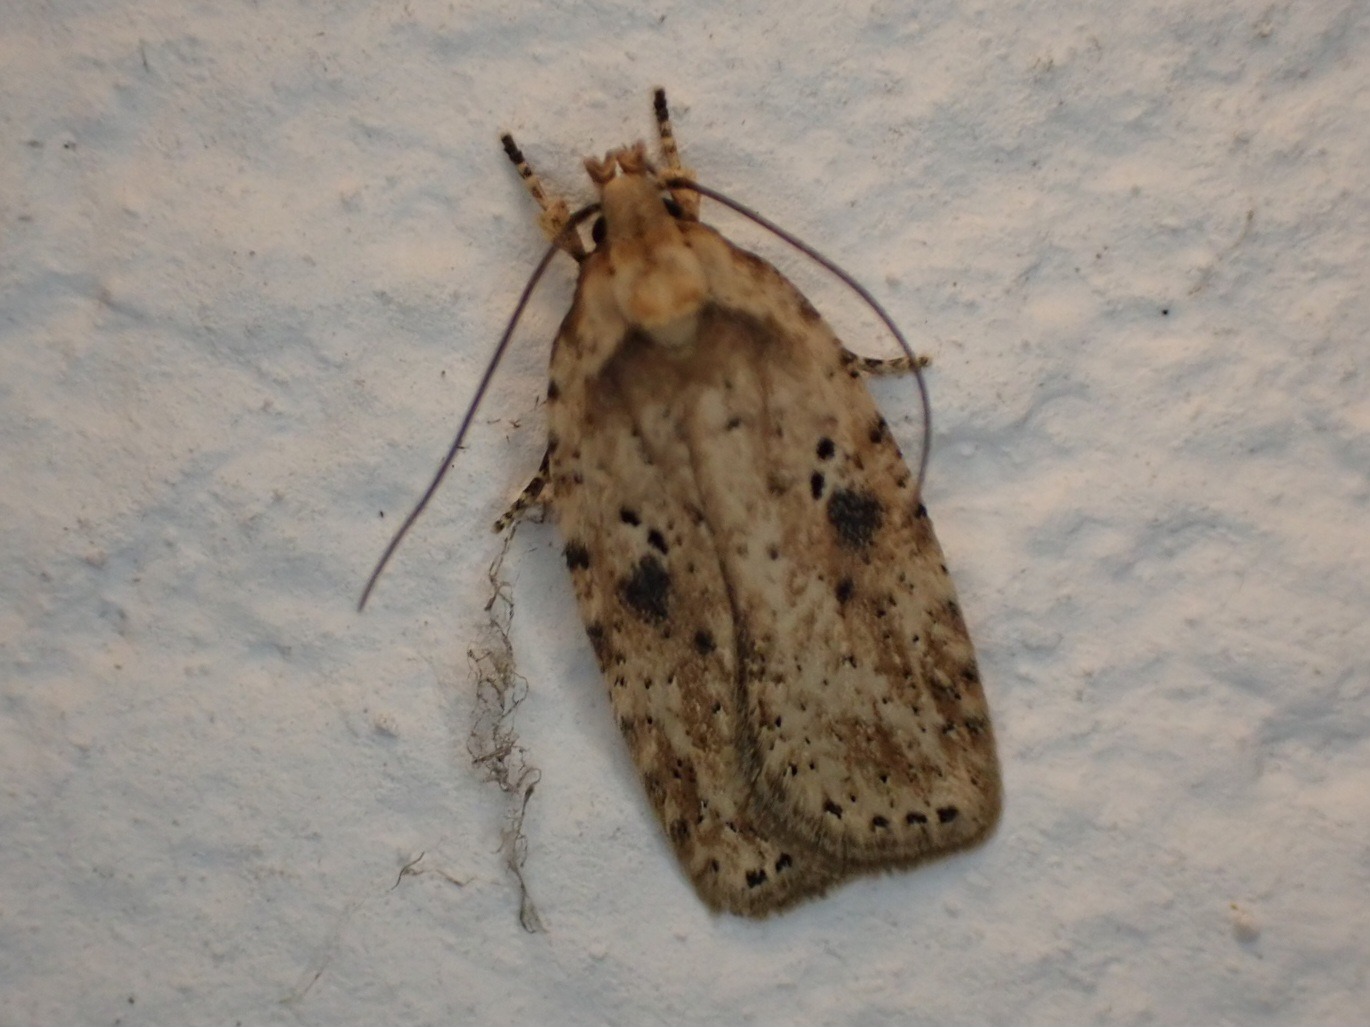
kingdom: Animalia
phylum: Arthropoda
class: Insecta
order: Lepidoptera
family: Depressariidae
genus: Agonopterix
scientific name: Agonopterix arenella
